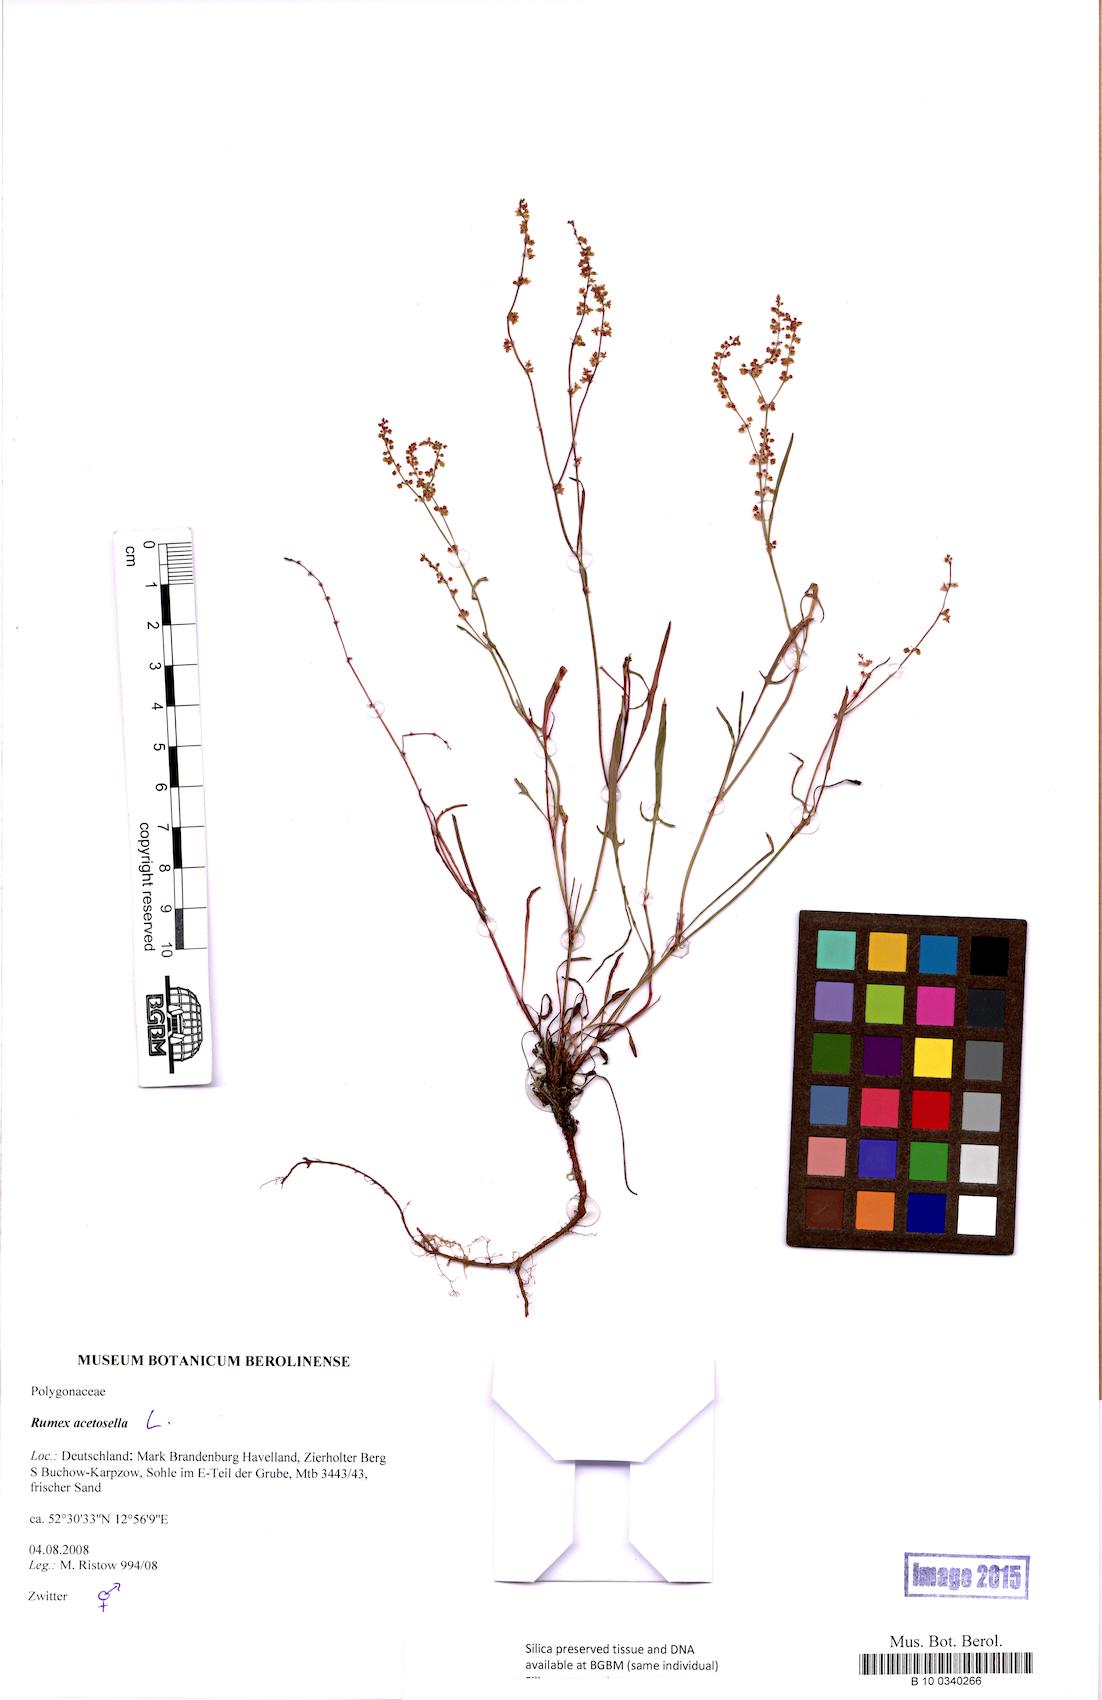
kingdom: Plantae
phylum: Tracheophyta
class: Magnoliopsida
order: Caryophyllales
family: Polygonaceae
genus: Rumex
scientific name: Rumex acetosella
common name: Common sheep sorrel
